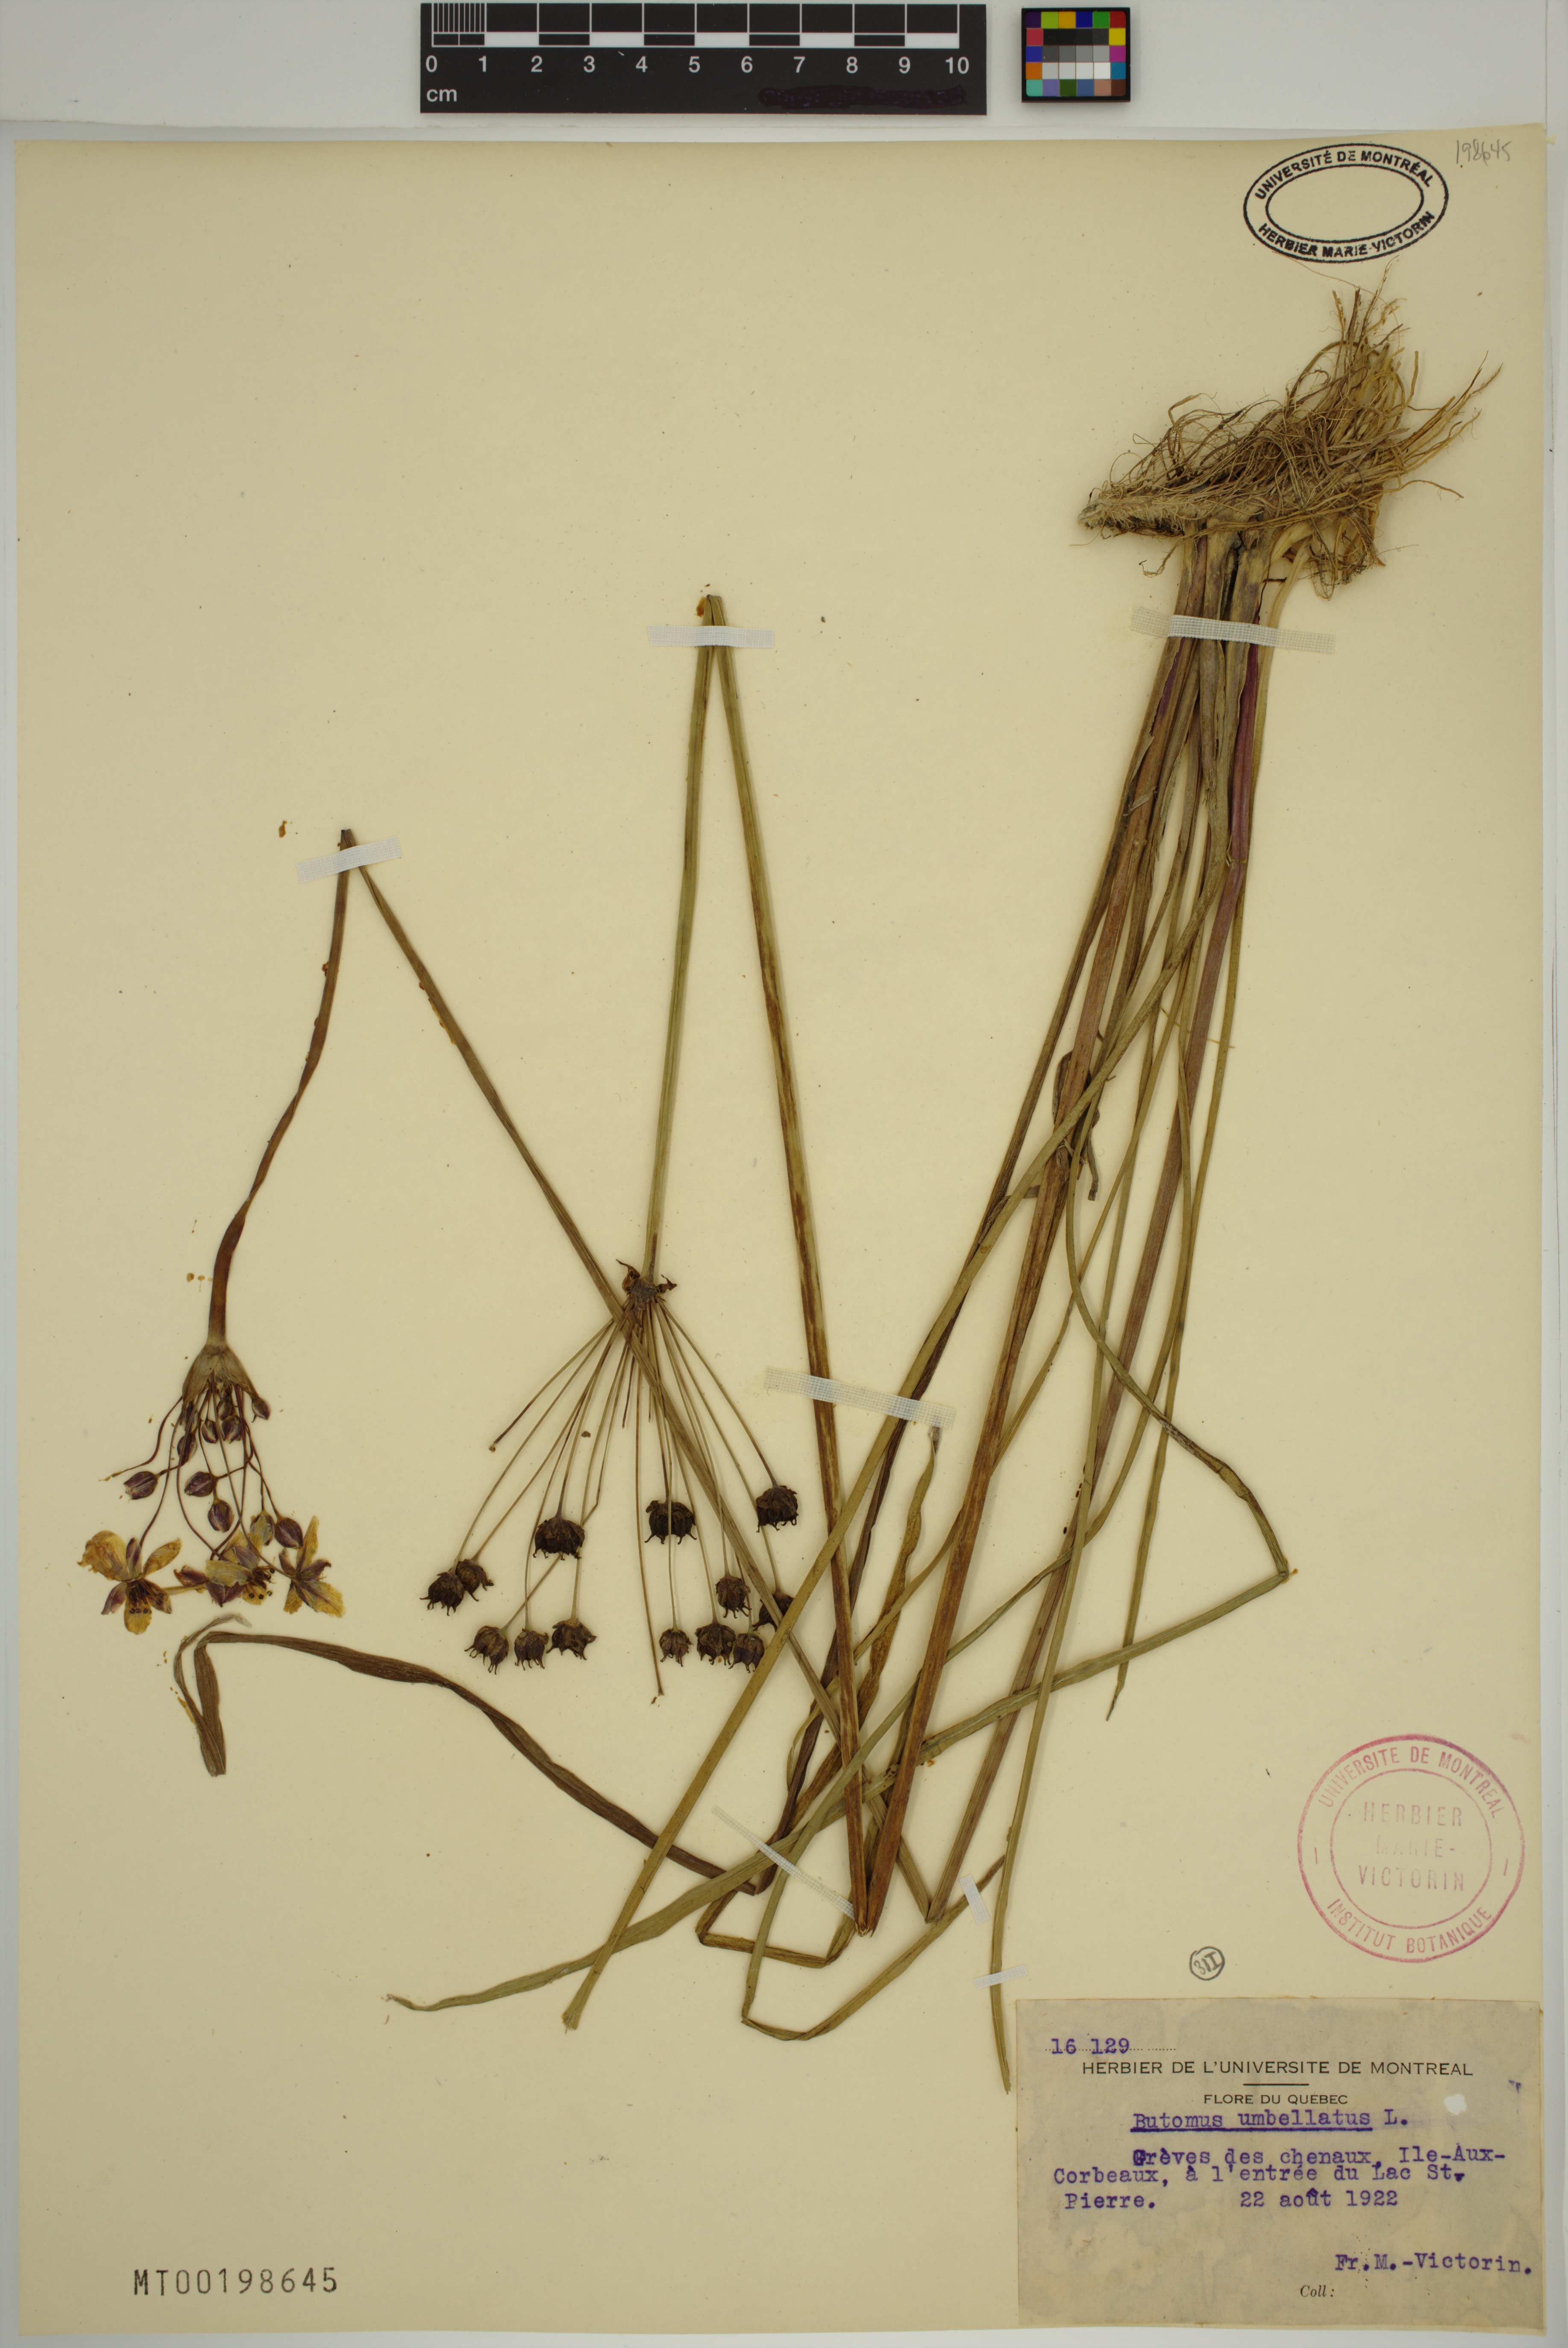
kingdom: Plantae
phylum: Tracheophyta
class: Liliopsida
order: Alismatales
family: Butomaceae
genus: Butomus
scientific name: Butomus umbellatus
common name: Flowering-rush
